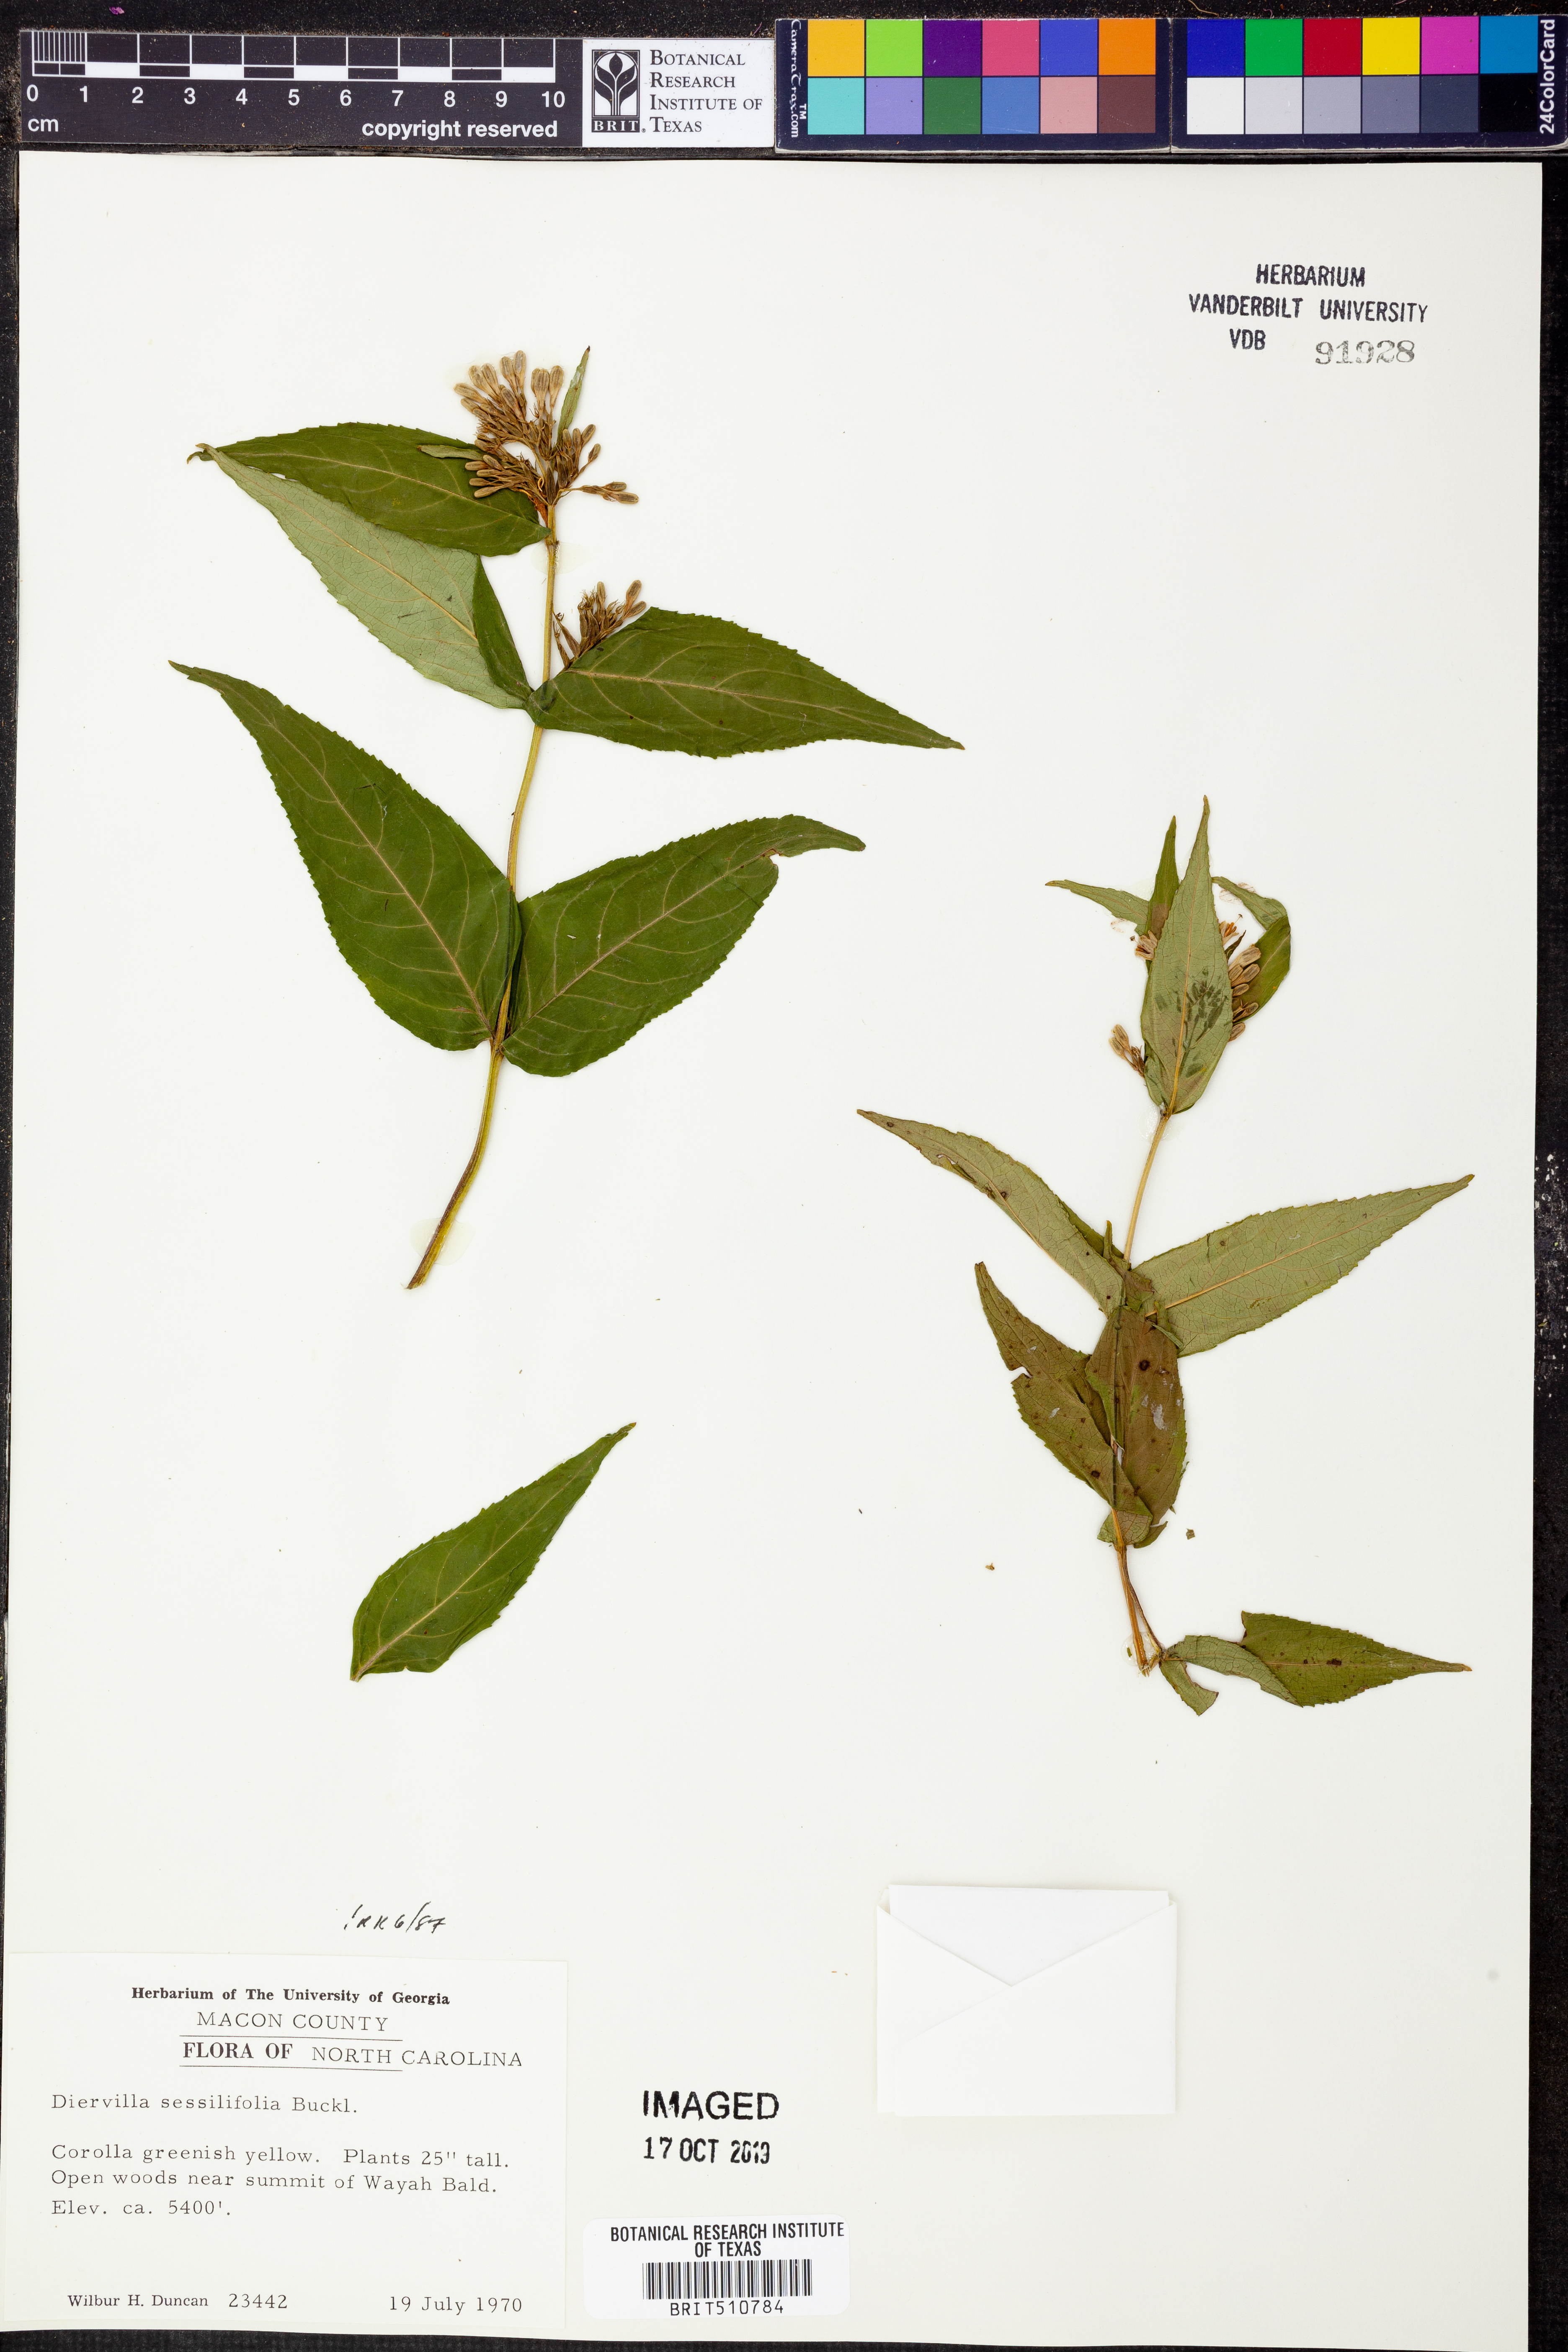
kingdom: Plantae
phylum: Tracheophyta
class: Magnoliopsida
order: Dipsacales
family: Caprifoliaceae
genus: Diervilla
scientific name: Diervilla sessilifolia
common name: Bush-honeysuckle
